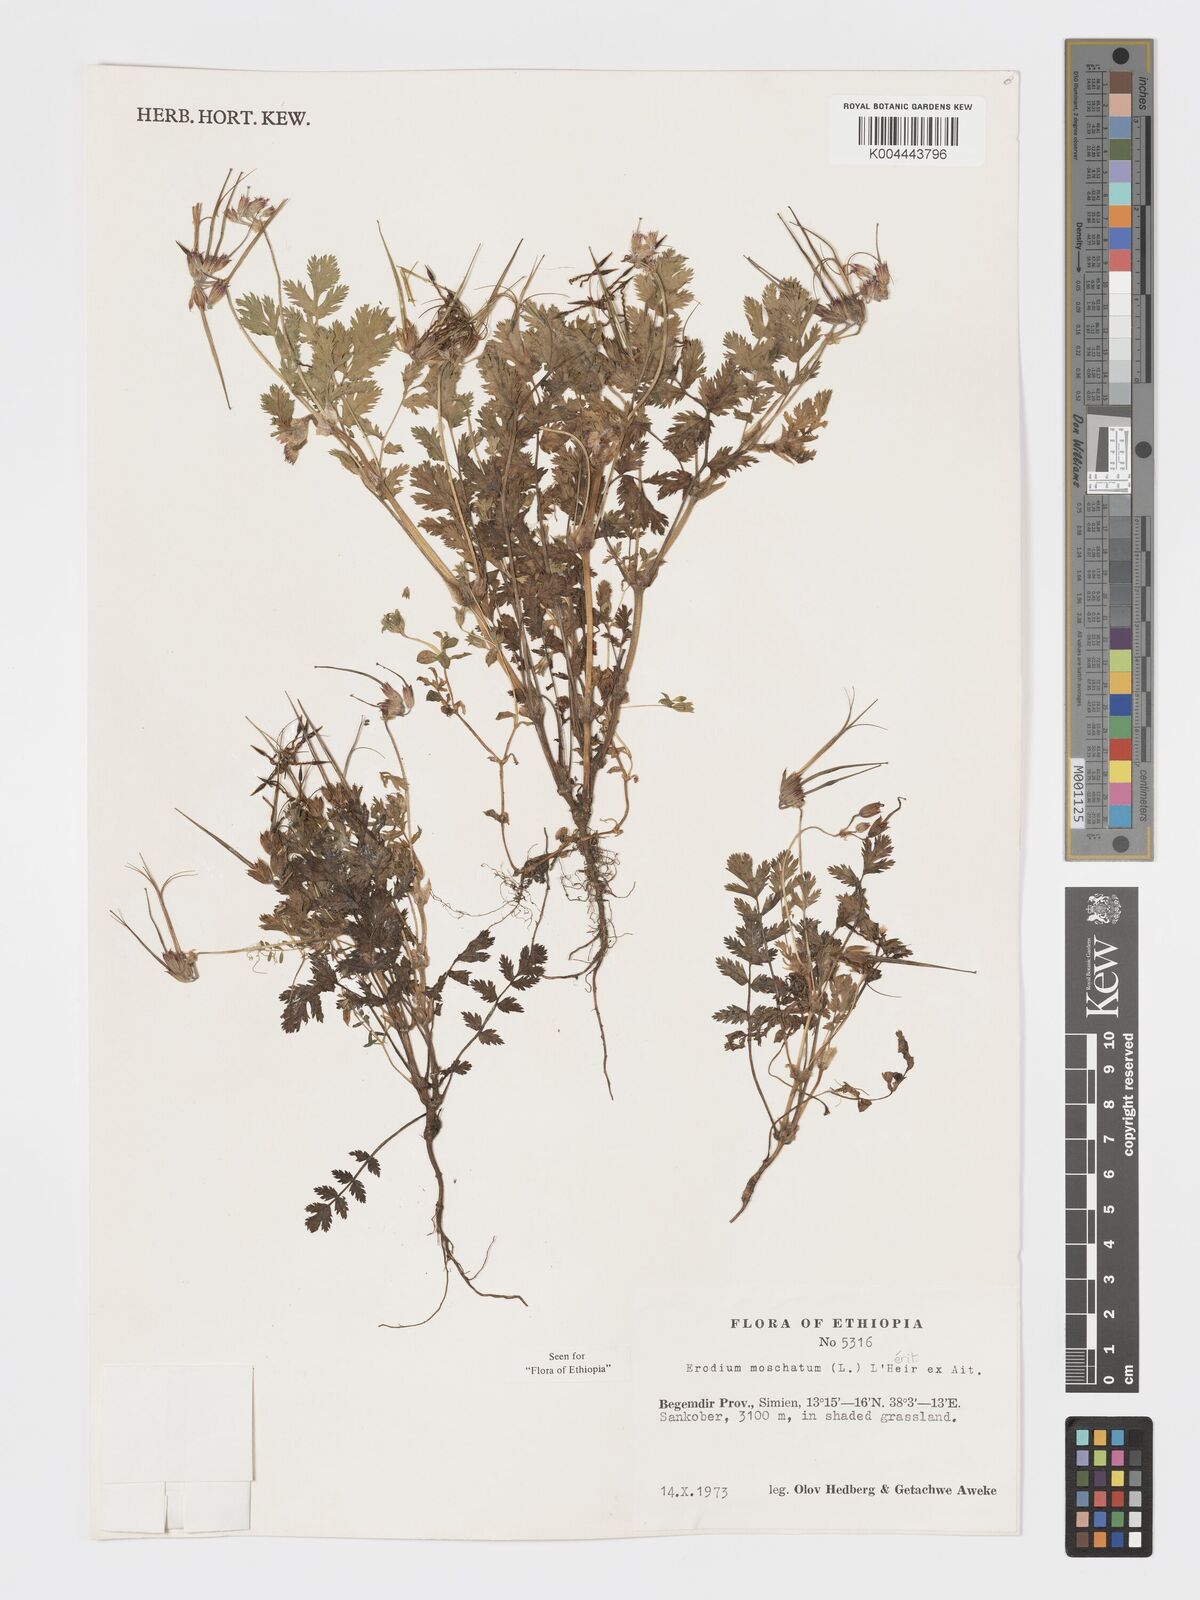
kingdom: Plantae
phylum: Tracheophyta
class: Magnoliopsida
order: Geraniales
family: Geraniaceae
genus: Erodium
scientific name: Erodium moschatum
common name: Musk stork's-bill
